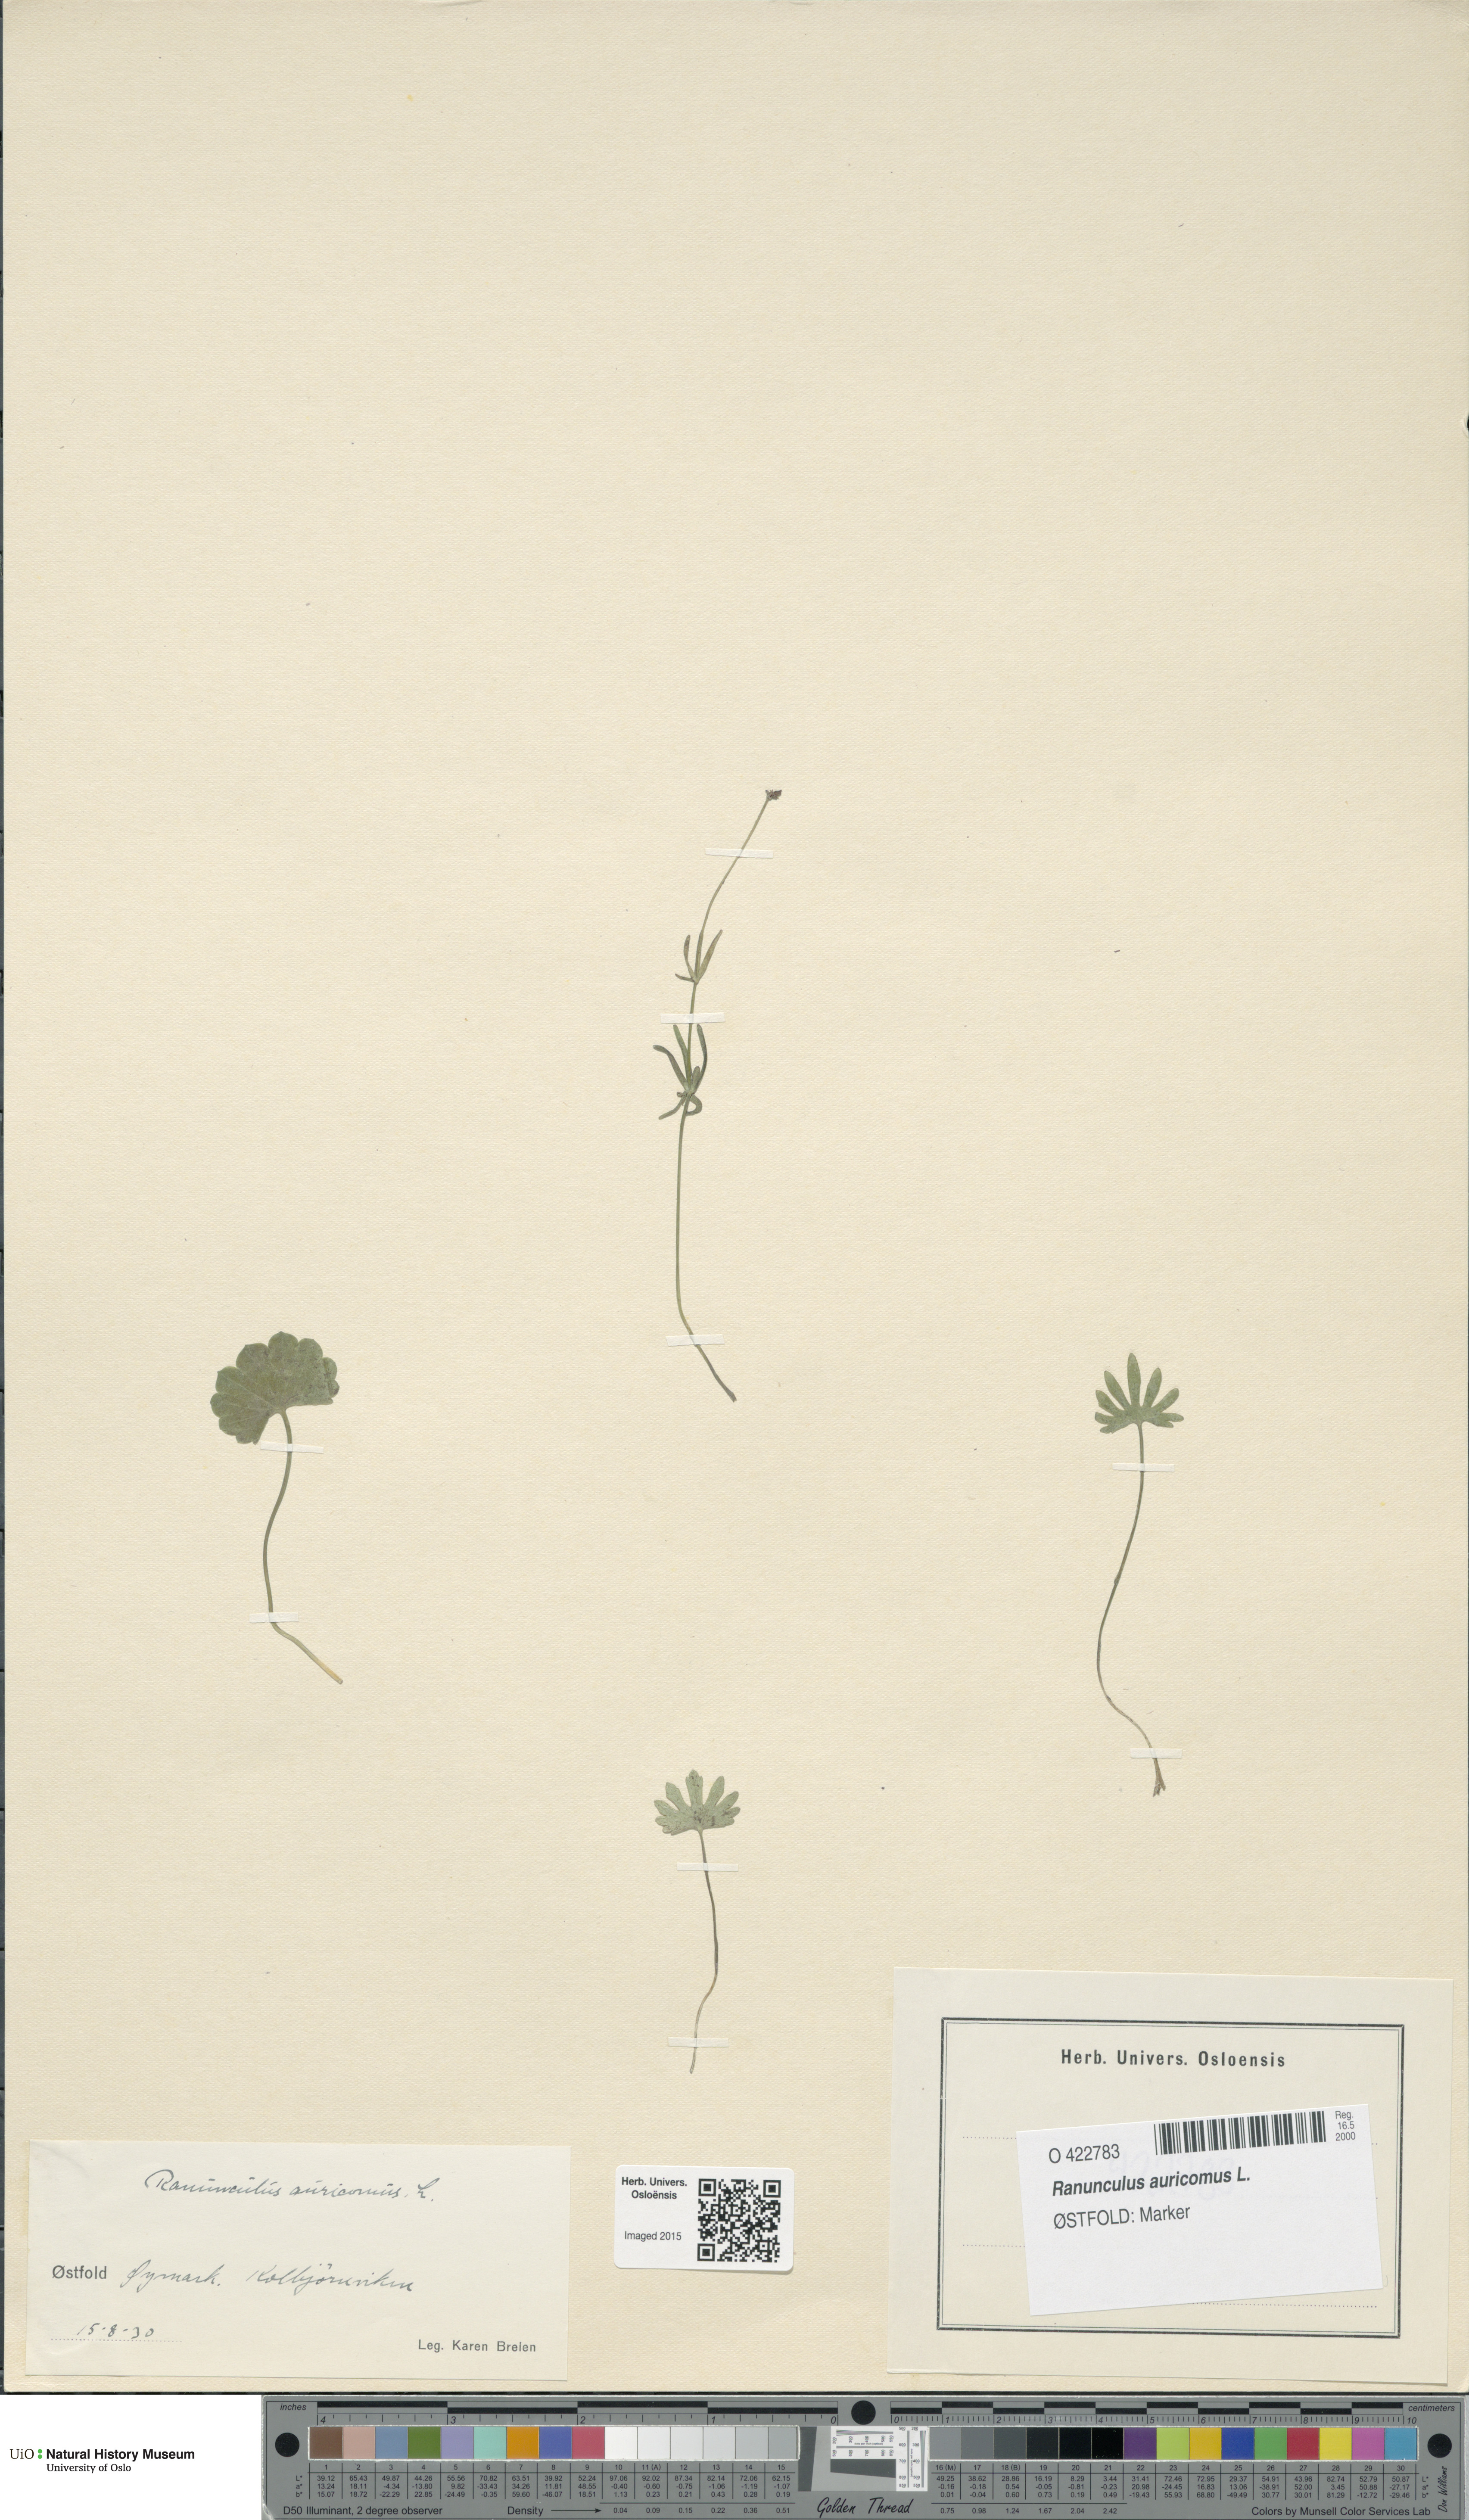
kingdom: Plantae
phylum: Tracheophyta
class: Magnoliopsida
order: Ranunculales
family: Ranunculaceae
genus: Ranunculus
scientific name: Ranunculus auricomus
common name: Goldilocks buttercup
